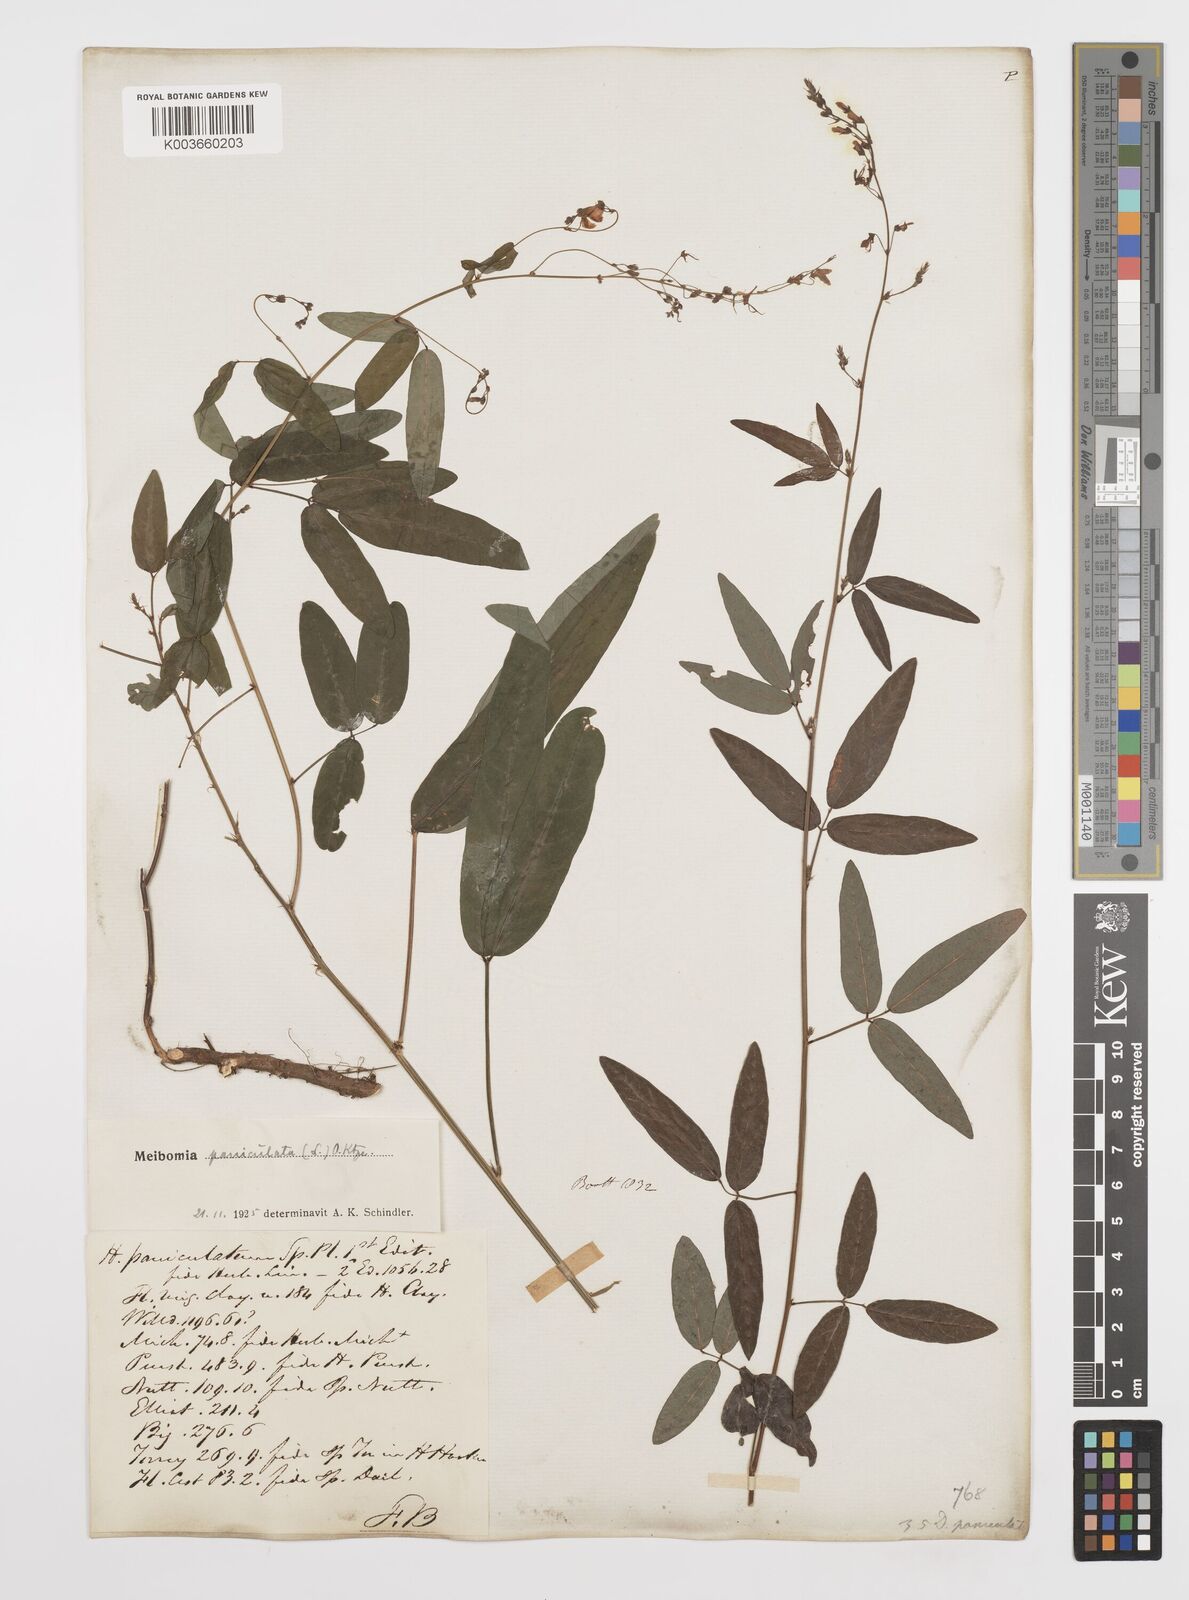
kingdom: Plantae
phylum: Tracheophyta
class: Magnoliopsida
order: Fabales
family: Fabaceae
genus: Desmodium
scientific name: Desmodium paniculatum
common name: Panicled tick-clover
